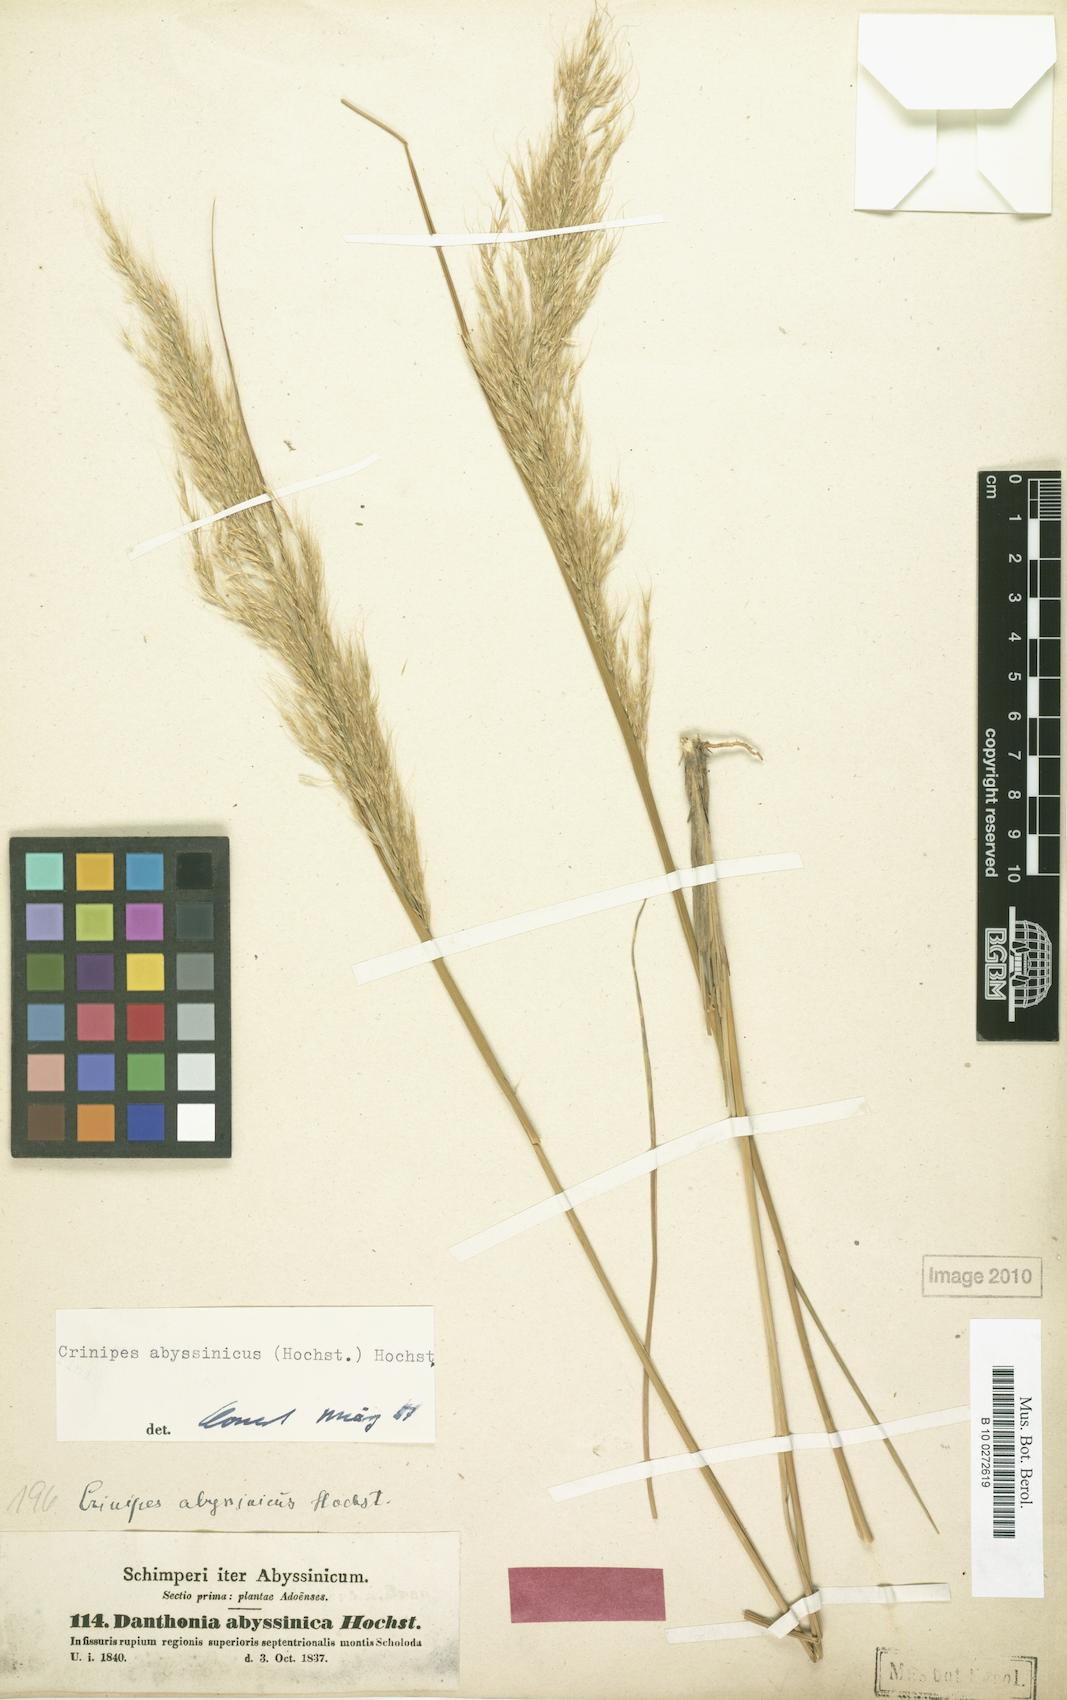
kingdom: Plantae
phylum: Tracheophyta
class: Liliopsida
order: Poales
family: Poaceae
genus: Crinipes
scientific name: Crinipes abyssinicus
